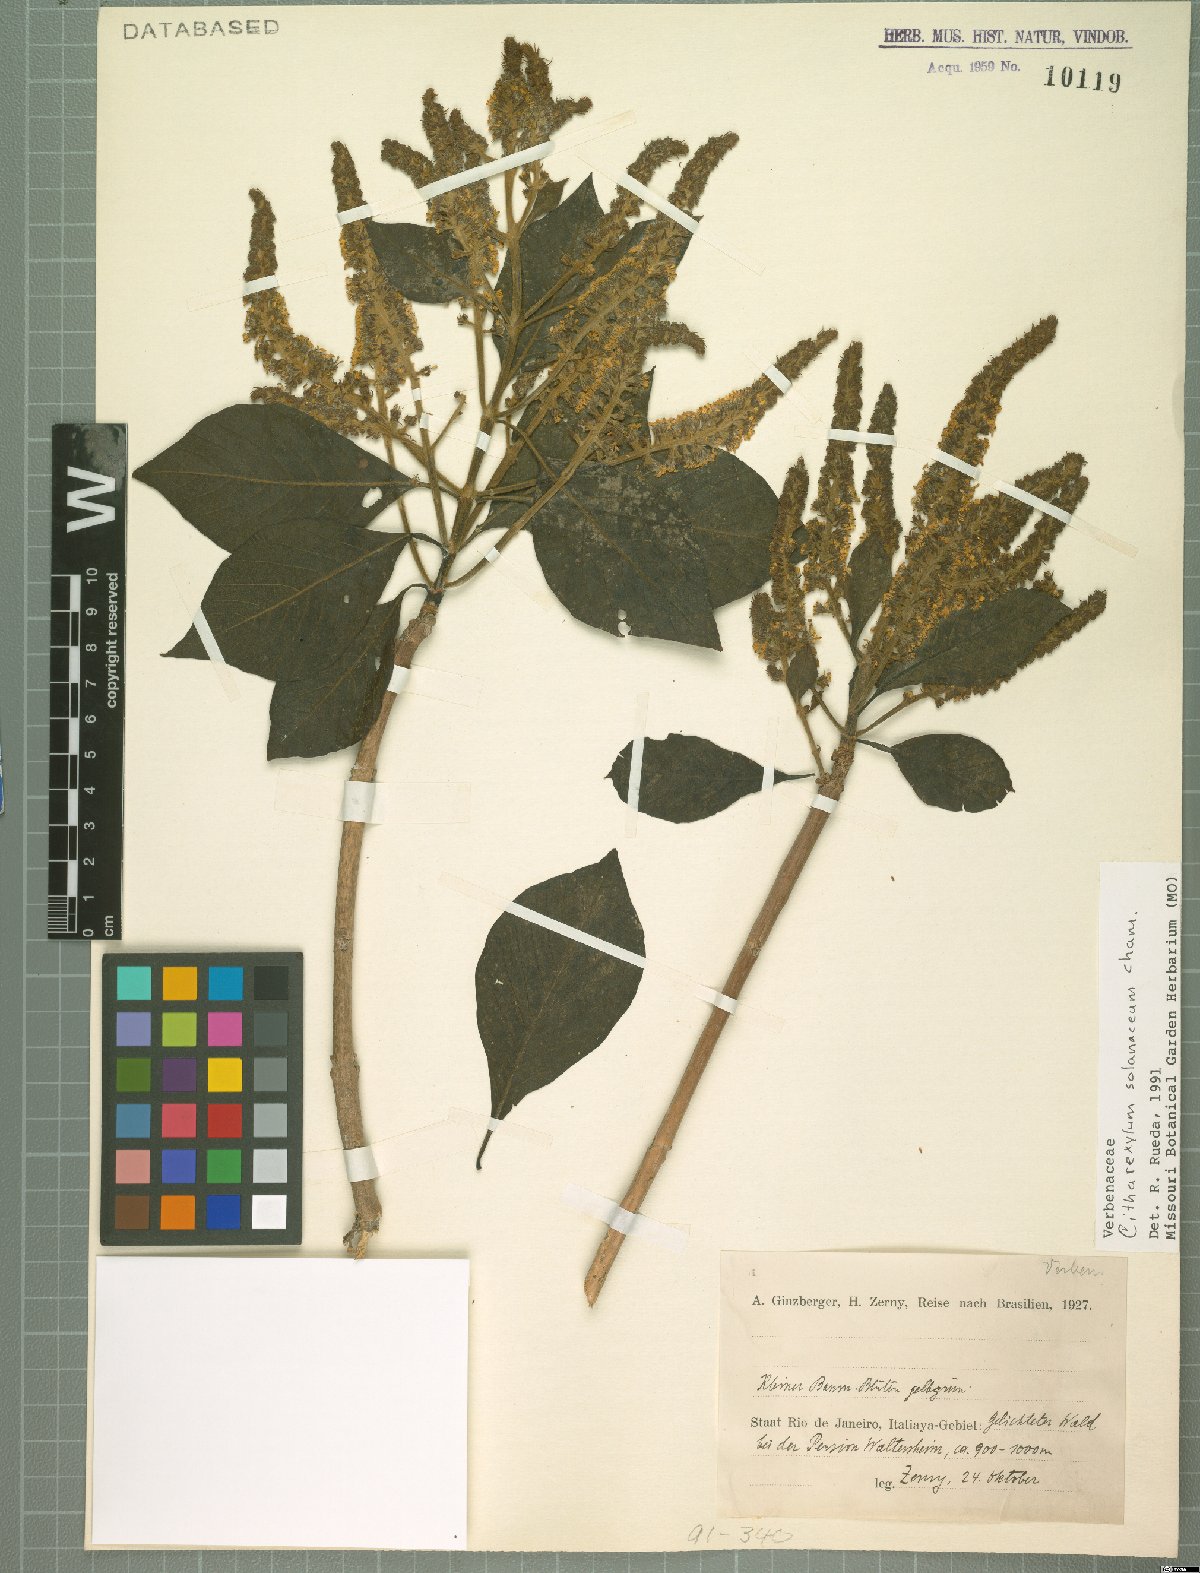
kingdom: Plantae
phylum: Tracheophyta
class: Magnoliopsida
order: Lamiales
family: Verbenaceae
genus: Citharexylum
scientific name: Citharexylum solanaceum
